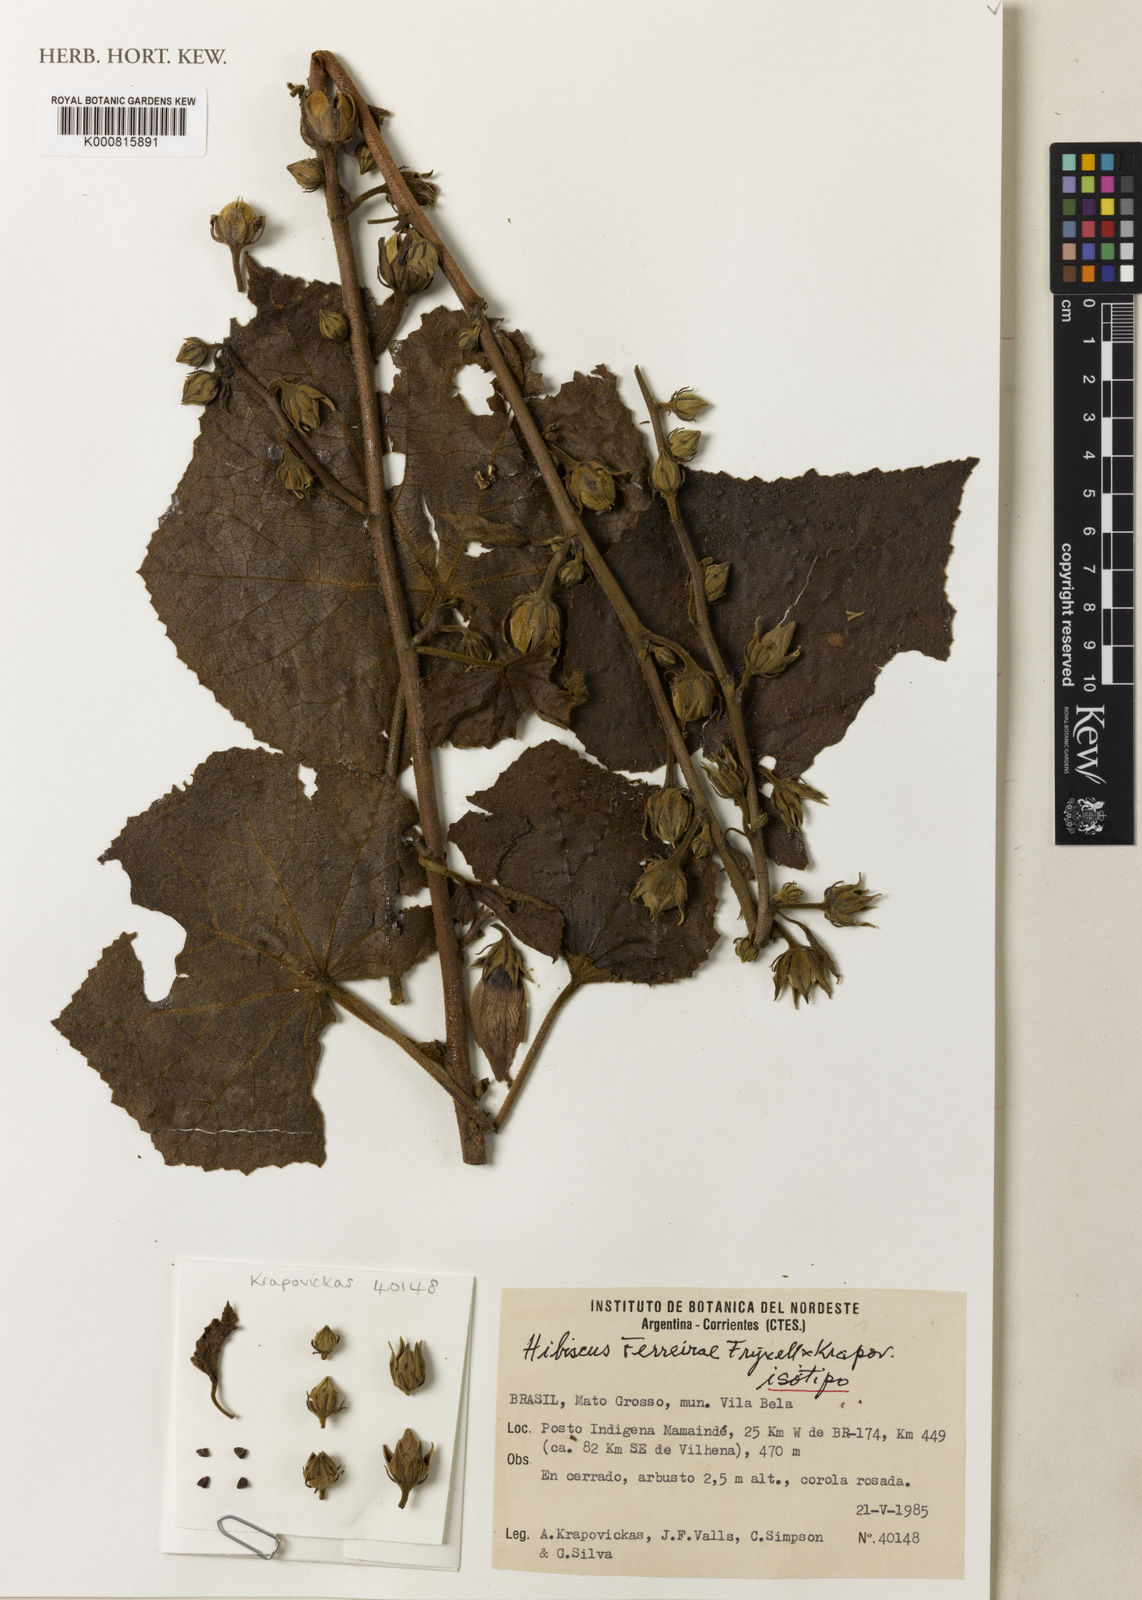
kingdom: Plantae
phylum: Tracheophyta
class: Magnoliopsida
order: Malvales
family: Malvaceae
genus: Hibiscus
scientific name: Hibiscus ferreirae
